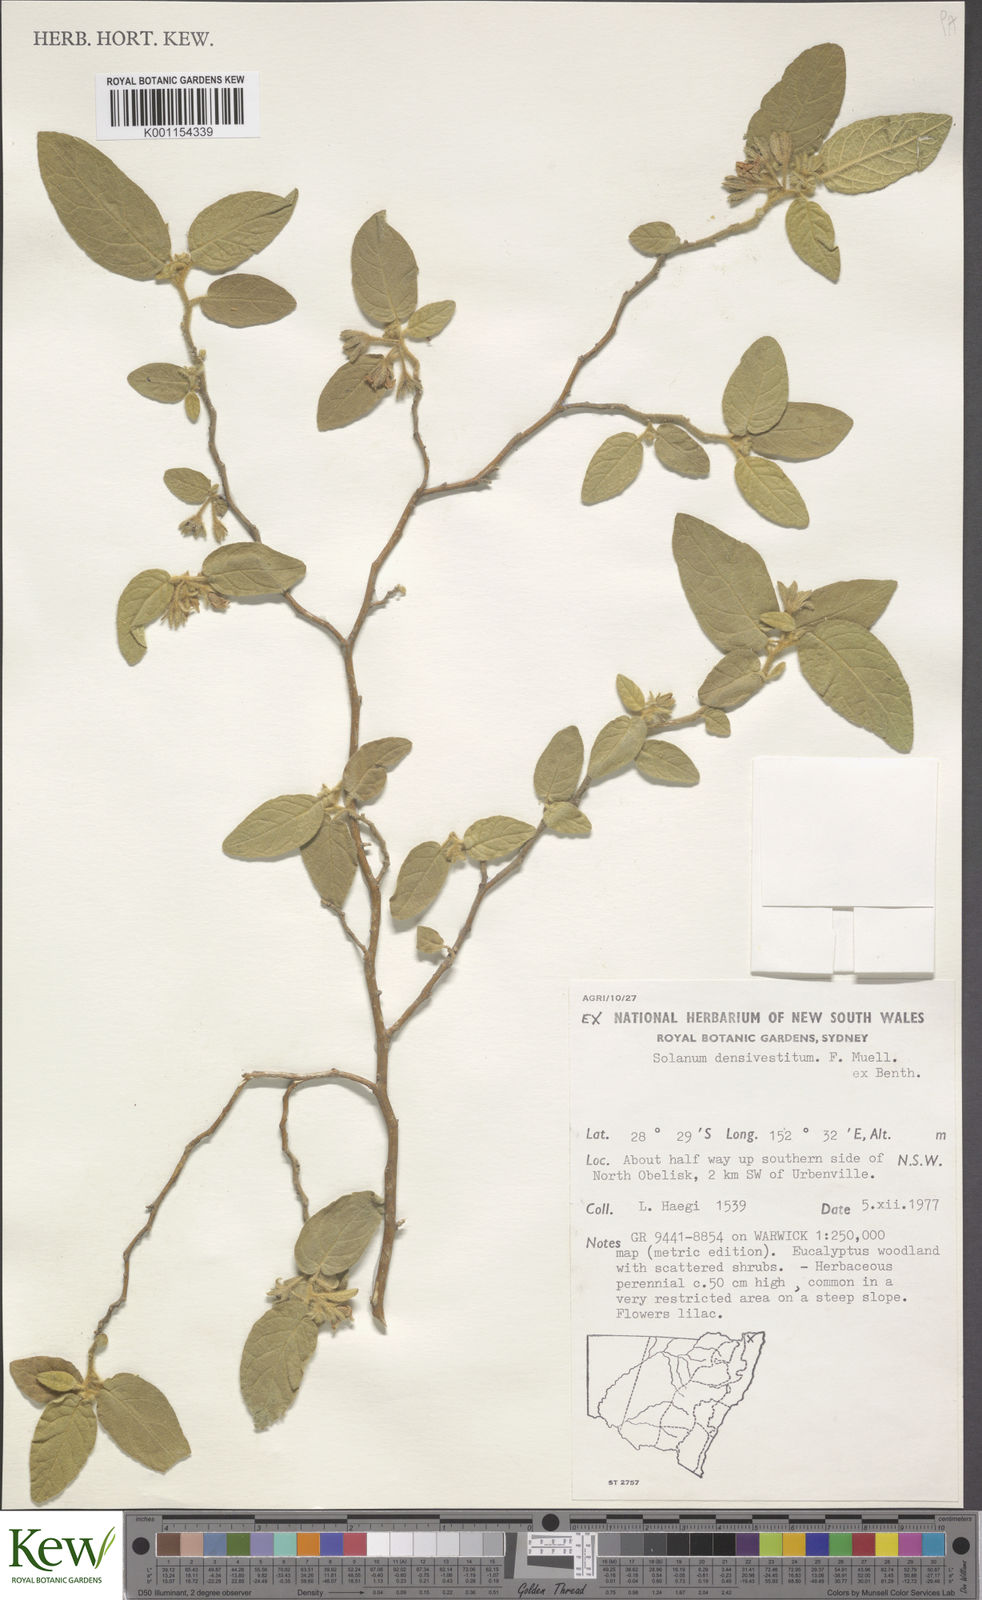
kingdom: Plantae
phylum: Tracheophyta
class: Magnoliopsida
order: Solanales
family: Solanaceae
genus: Solanum
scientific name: Solanum densevestitum
